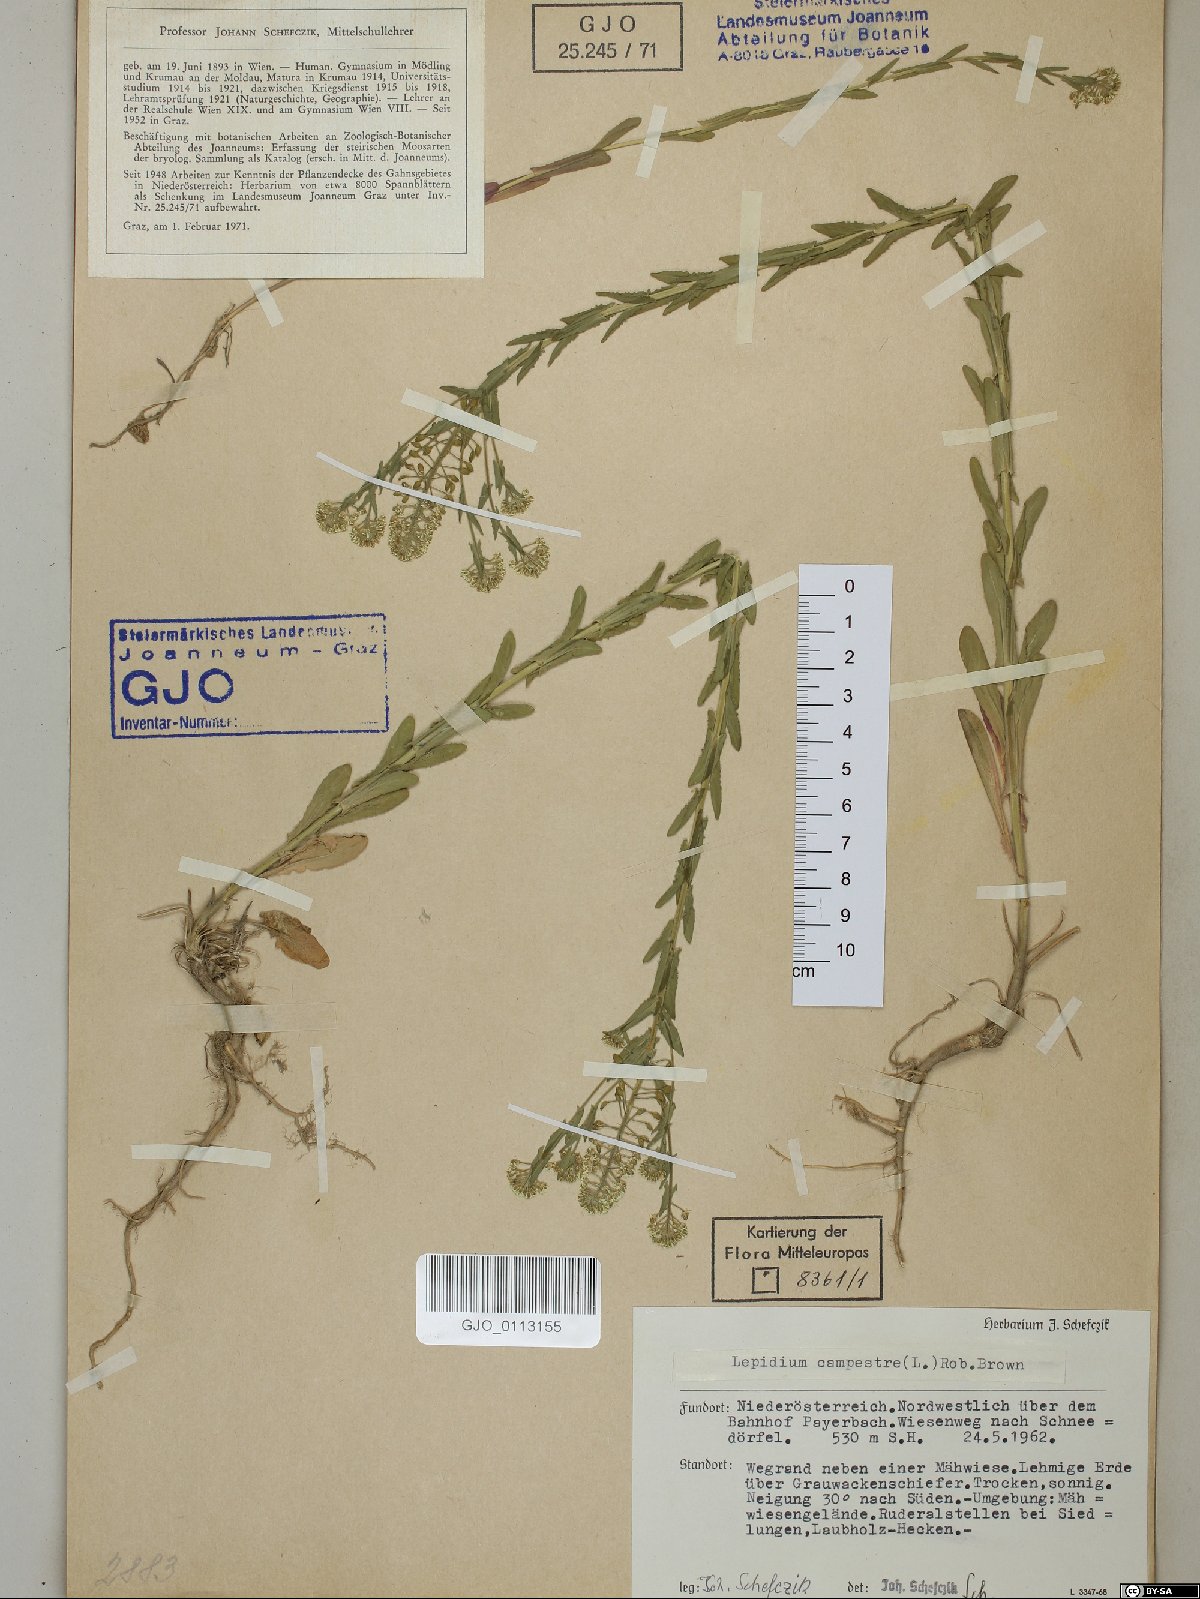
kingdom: Plantae
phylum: Tracheophyta
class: Magnoliopsida
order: Brassicales
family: Brassicaceae
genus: Lepidium
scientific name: Lepidium campestre
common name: Field pepperwort
